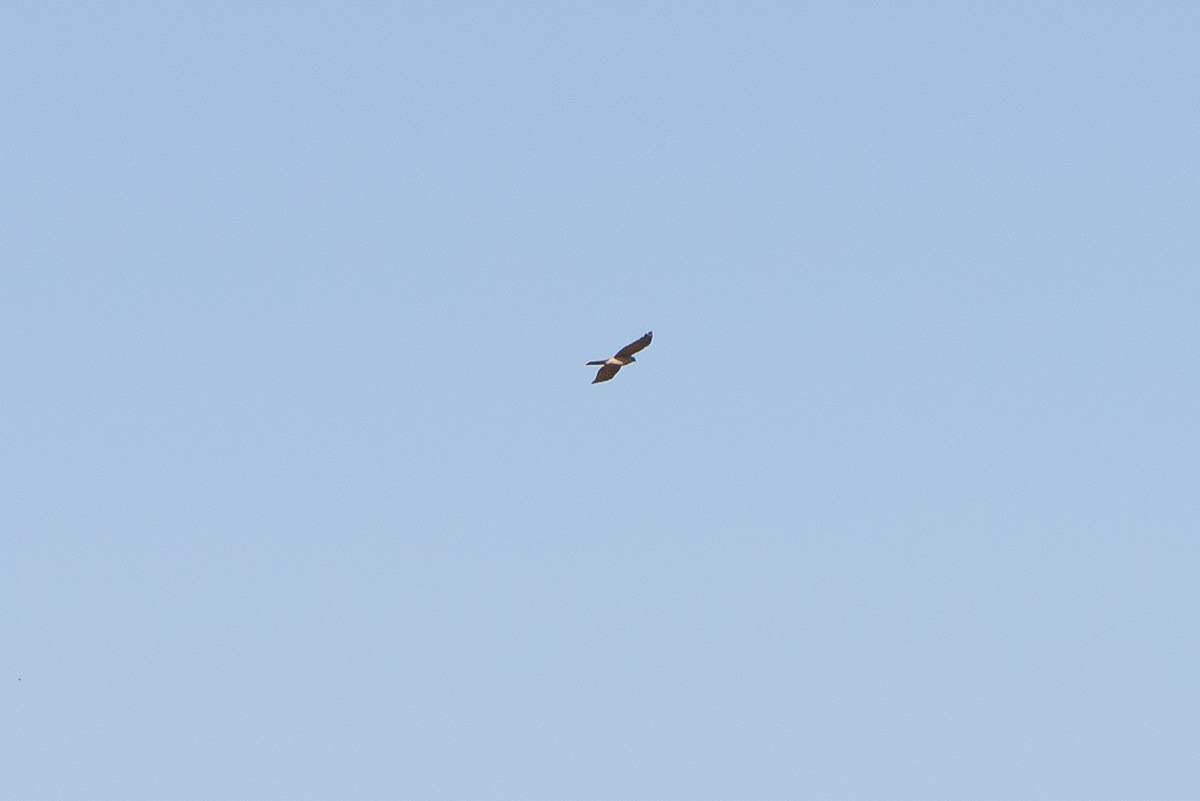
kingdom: Animalia
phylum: Chordata
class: Aves
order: Accipitriformes
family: Accipitridae
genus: Accipiter
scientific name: Accipiter nisus
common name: Spurvehøg
